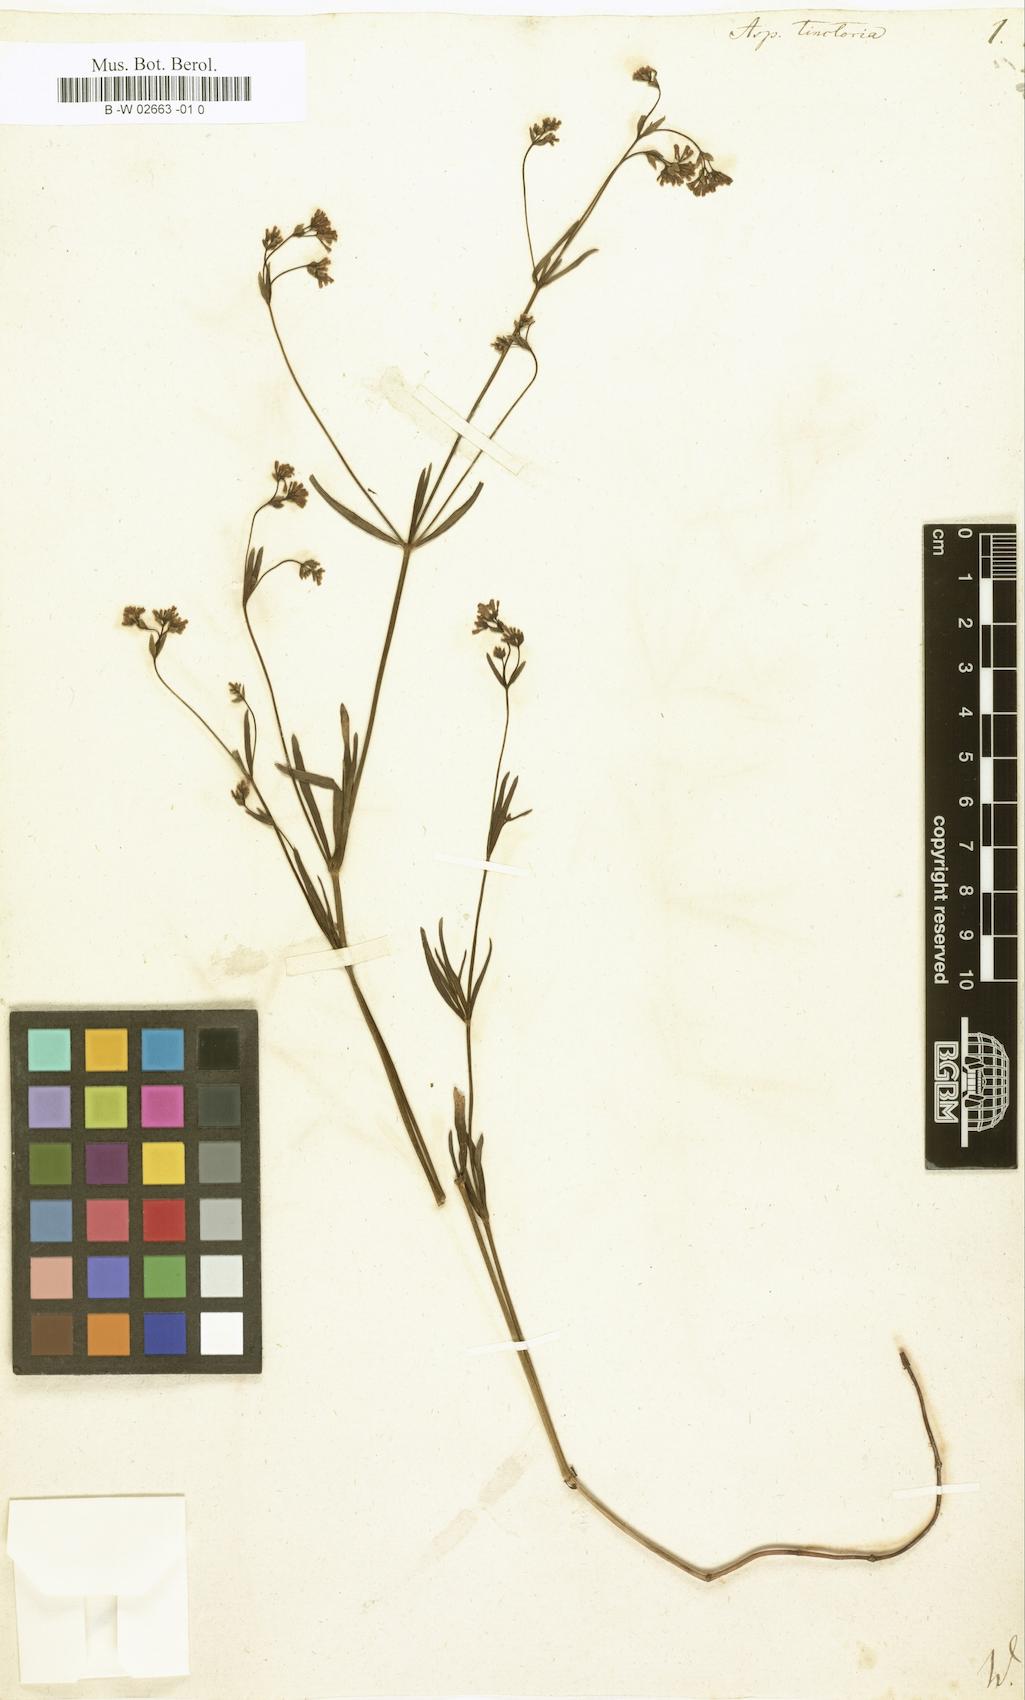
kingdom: Plantae
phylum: Tracheophyta
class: Magnoliopsida
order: Gentianales
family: Rubiaceae
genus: Asperula
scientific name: Asperula tinctoria
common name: Dyer's woodruff
